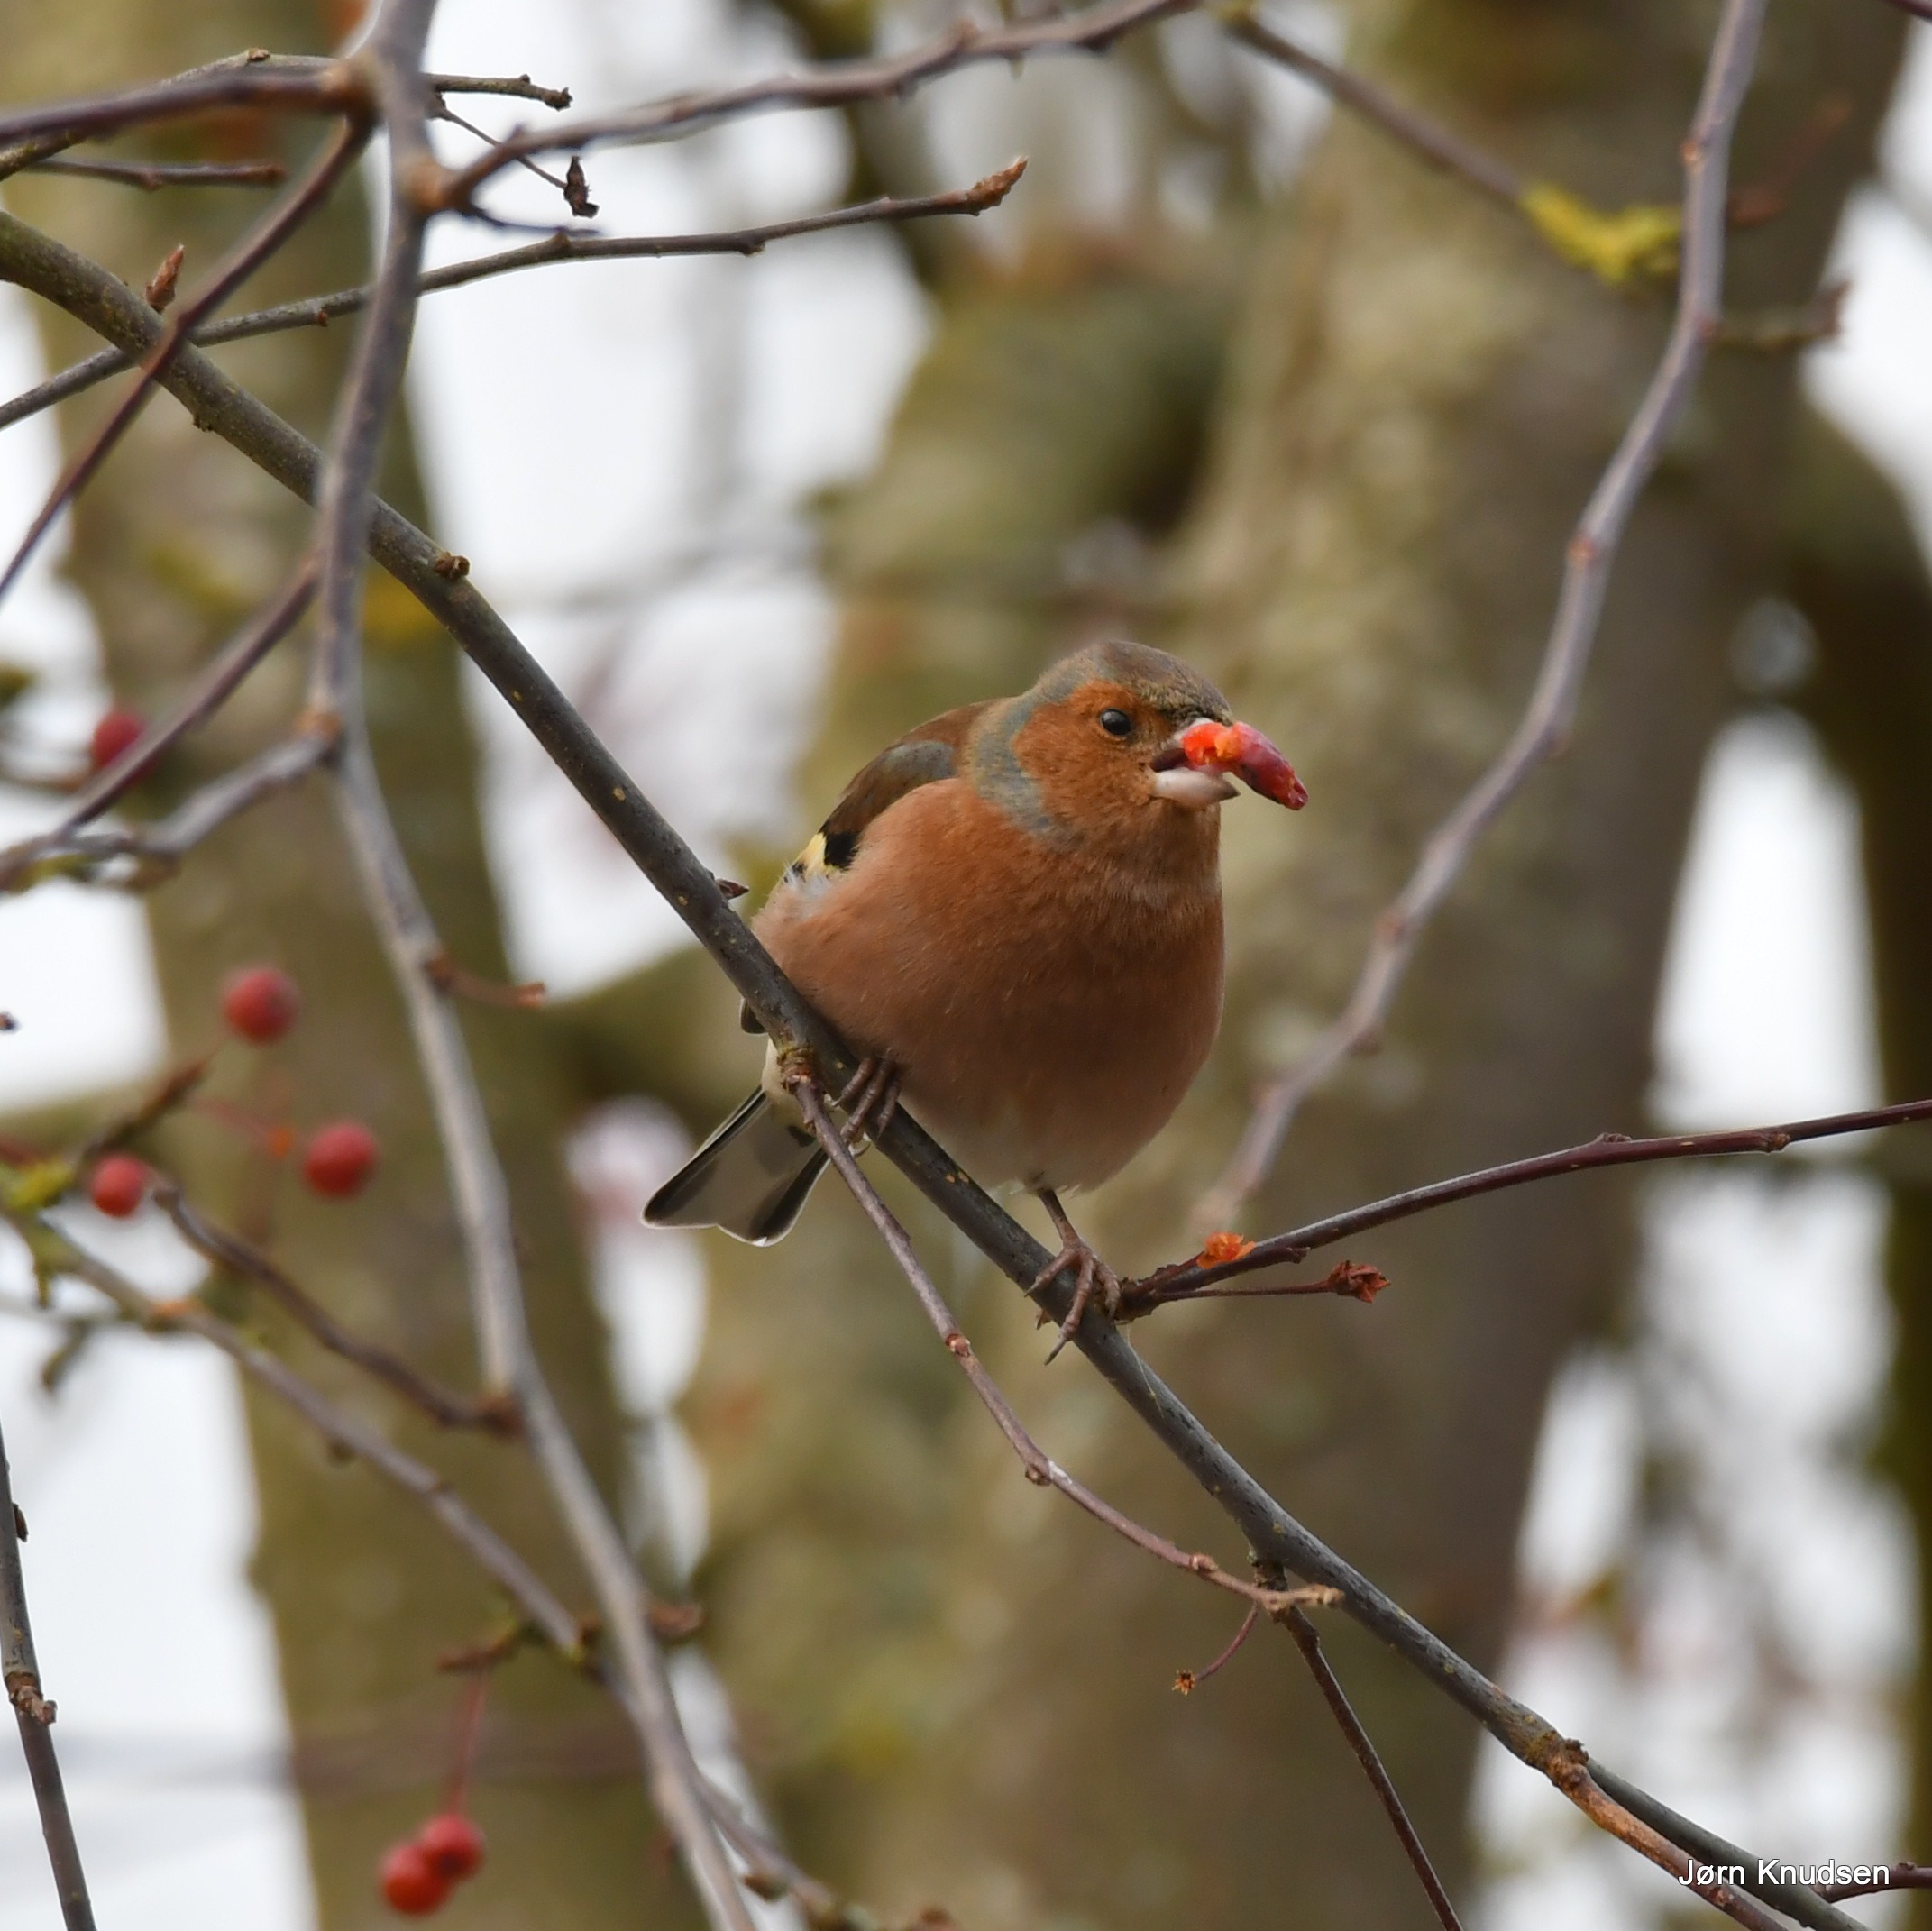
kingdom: Animalia
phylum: Chordata
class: Aves
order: Passeriformes
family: Fringillidae
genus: Fringilla
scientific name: Fringilla coelebs
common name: Bogfinke
